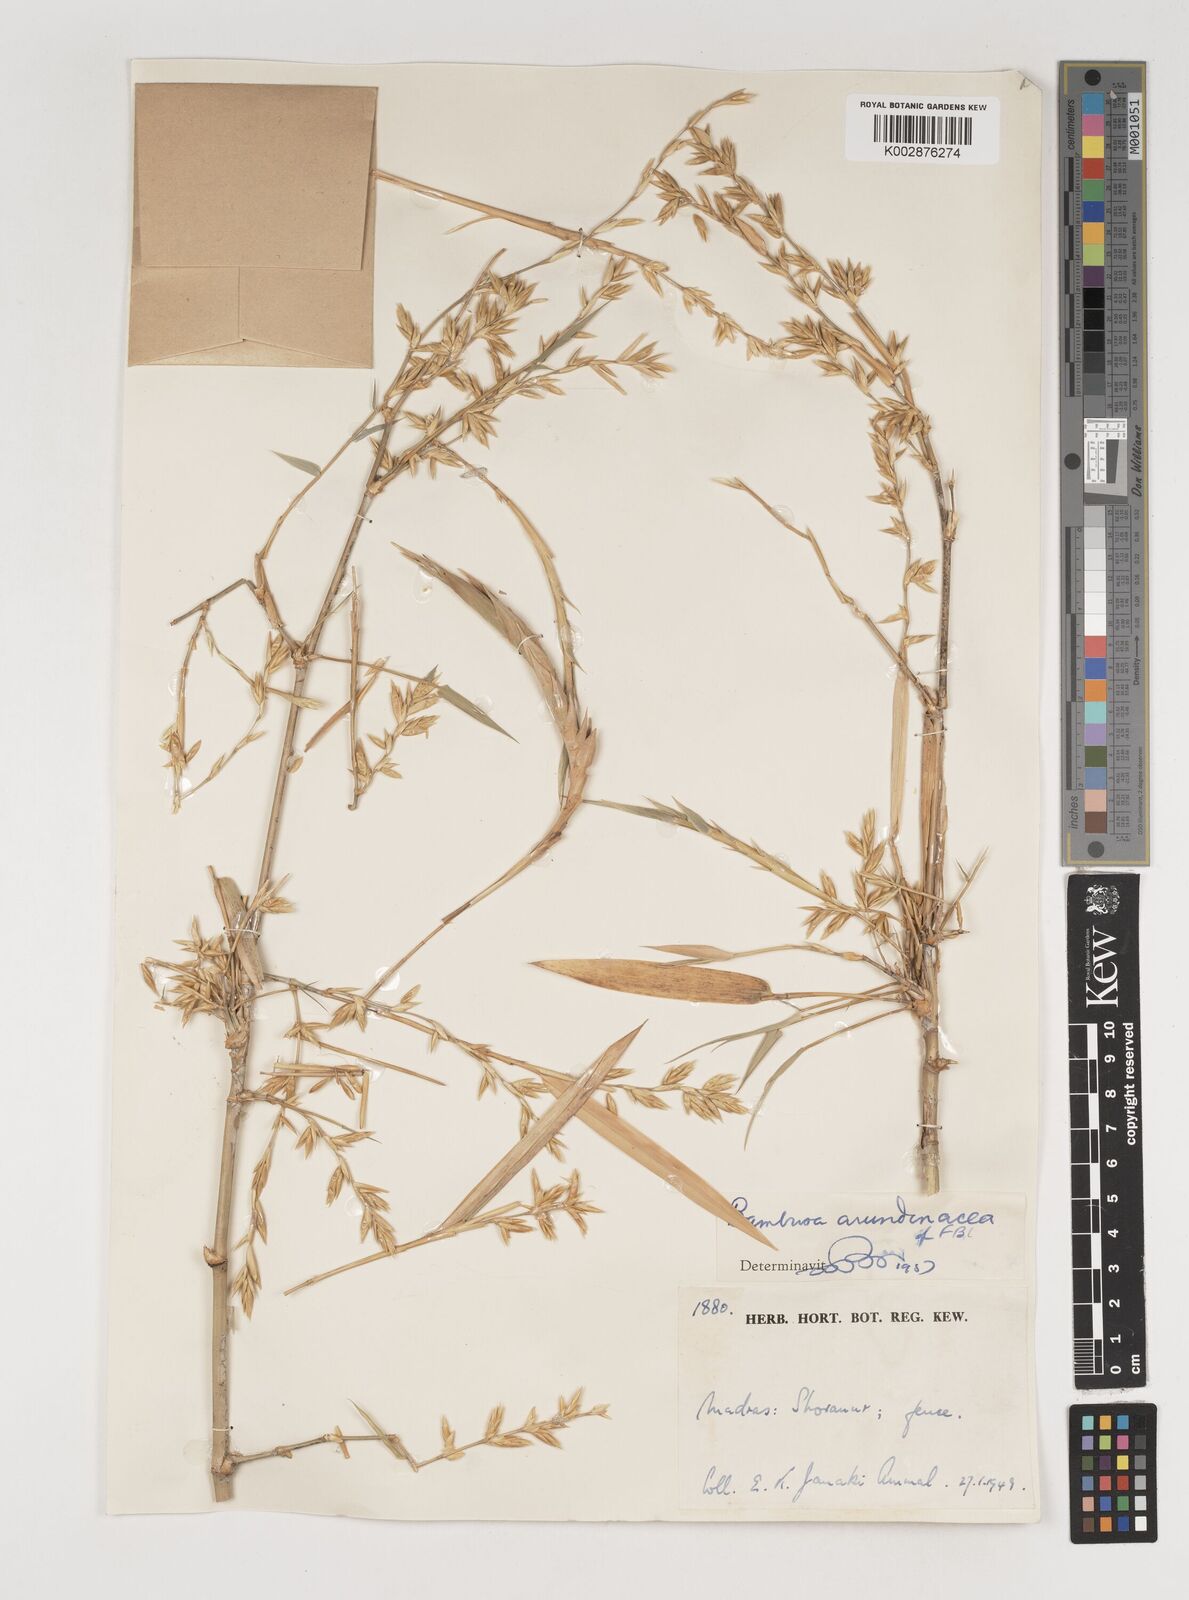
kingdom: Plantae
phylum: Tracheophyta
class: Liliopsida
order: Poales
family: Poaceae
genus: Bambusa
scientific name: Bambusa bambos
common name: Indian thorny bamboo
